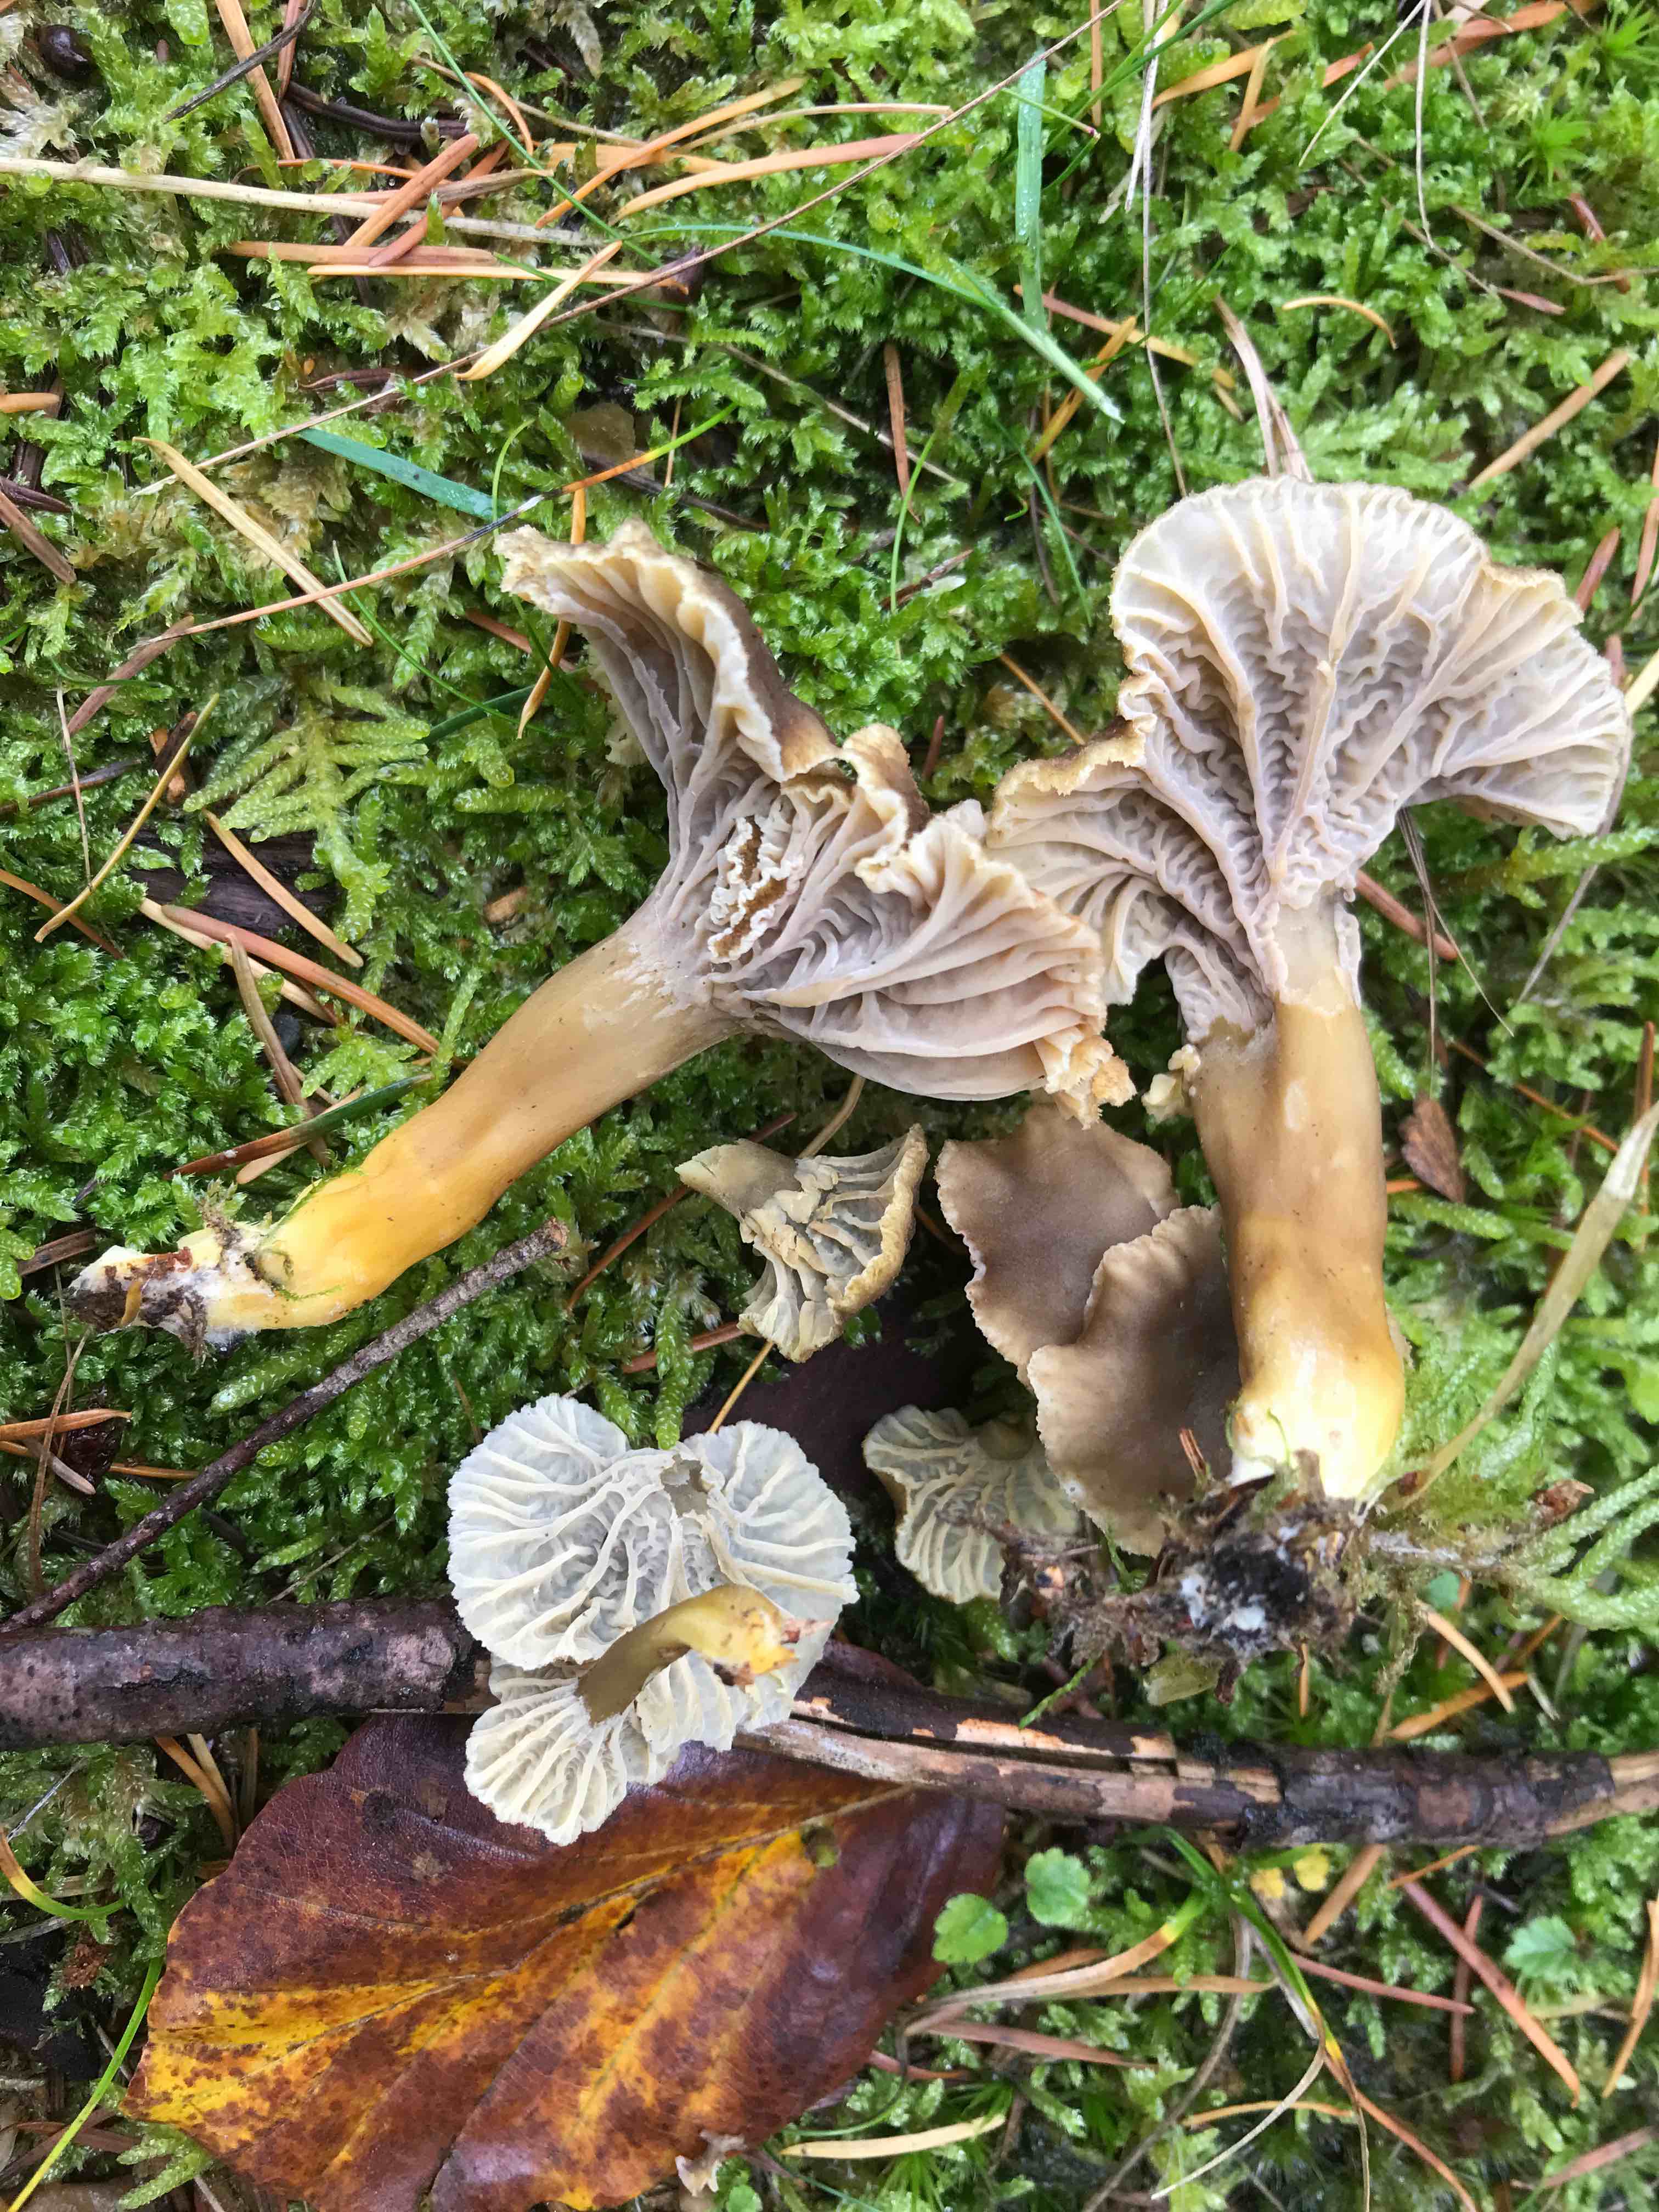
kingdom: Fungi
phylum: Basidiomycota
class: Agaricomycetes
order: Cantharellales
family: Hydnaceae
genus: Craterellus
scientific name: Craterellus tubaeformis
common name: tragt-kantarel
